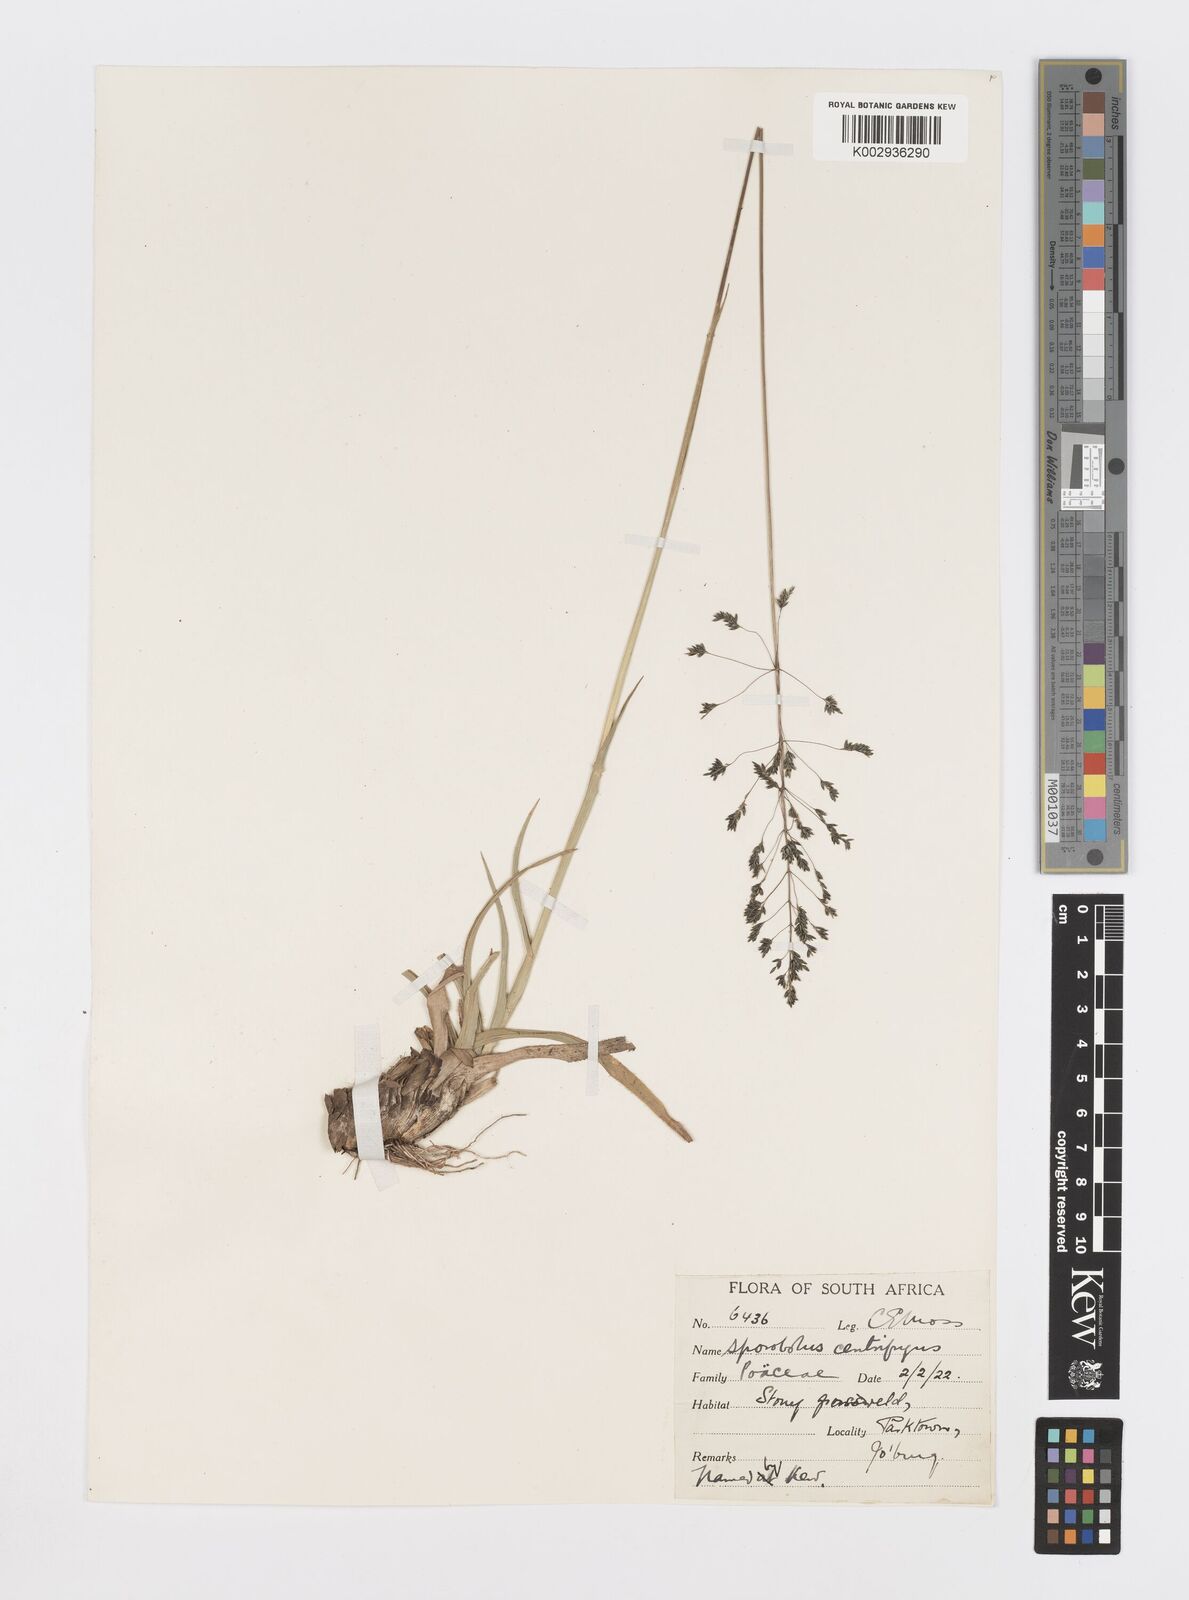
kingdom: Plantae
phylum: Tracheophyta
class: Liliopsida
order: Poales
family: Poaceae
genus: Sporobolus
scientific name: Sporobolus pectinatus
